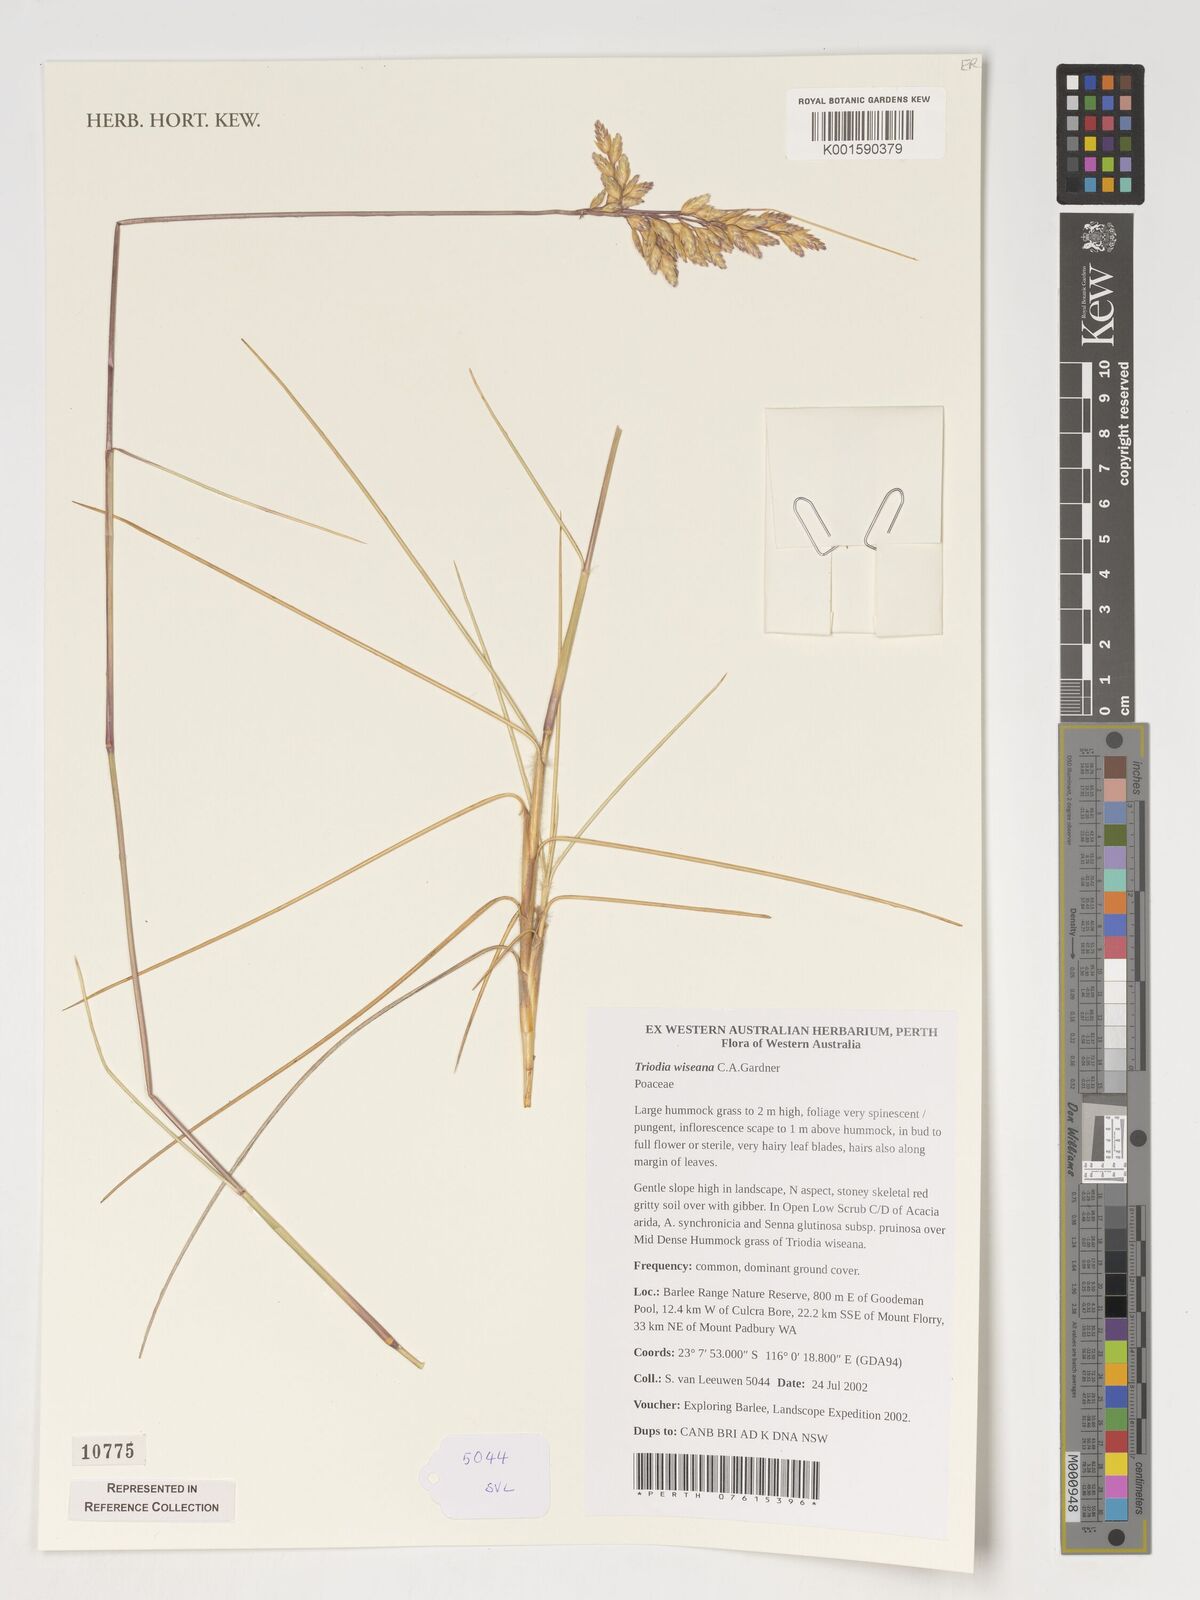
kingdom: Plantae
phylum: Tracheophyta
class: Liliopsida
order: Poales
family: Poaceae
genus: Triodia
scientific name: Triodia wiseana
